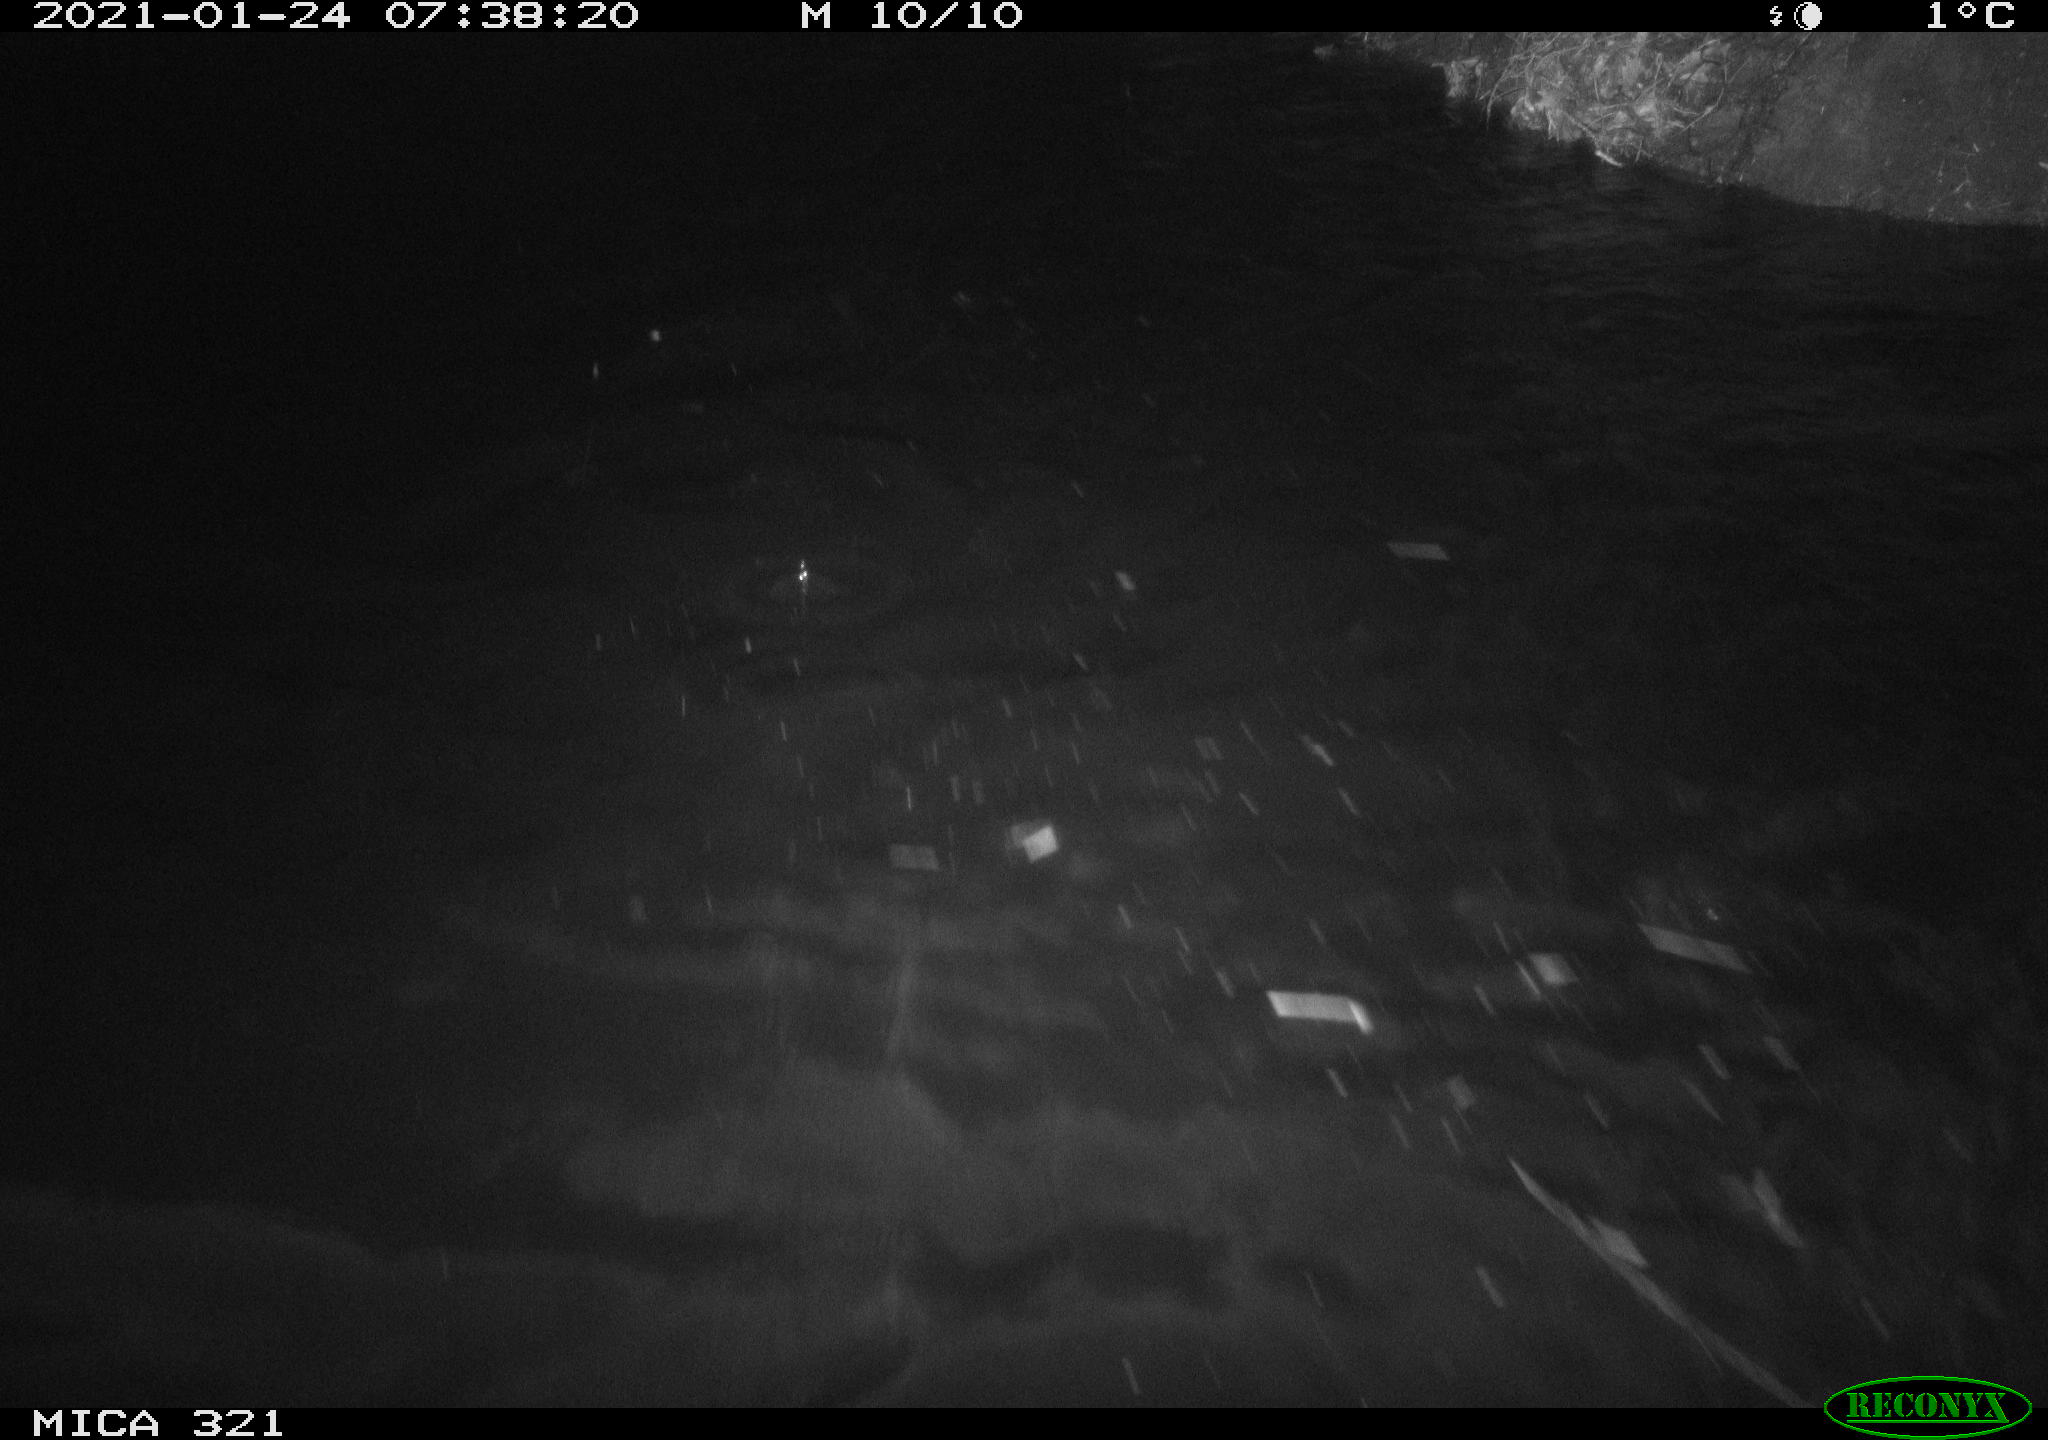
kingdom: Animalia
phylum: Chordata
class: Aves
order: Anseriformes
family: Anatidae
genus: Anas
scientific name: Anas platyrhynchos
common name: Mallard
